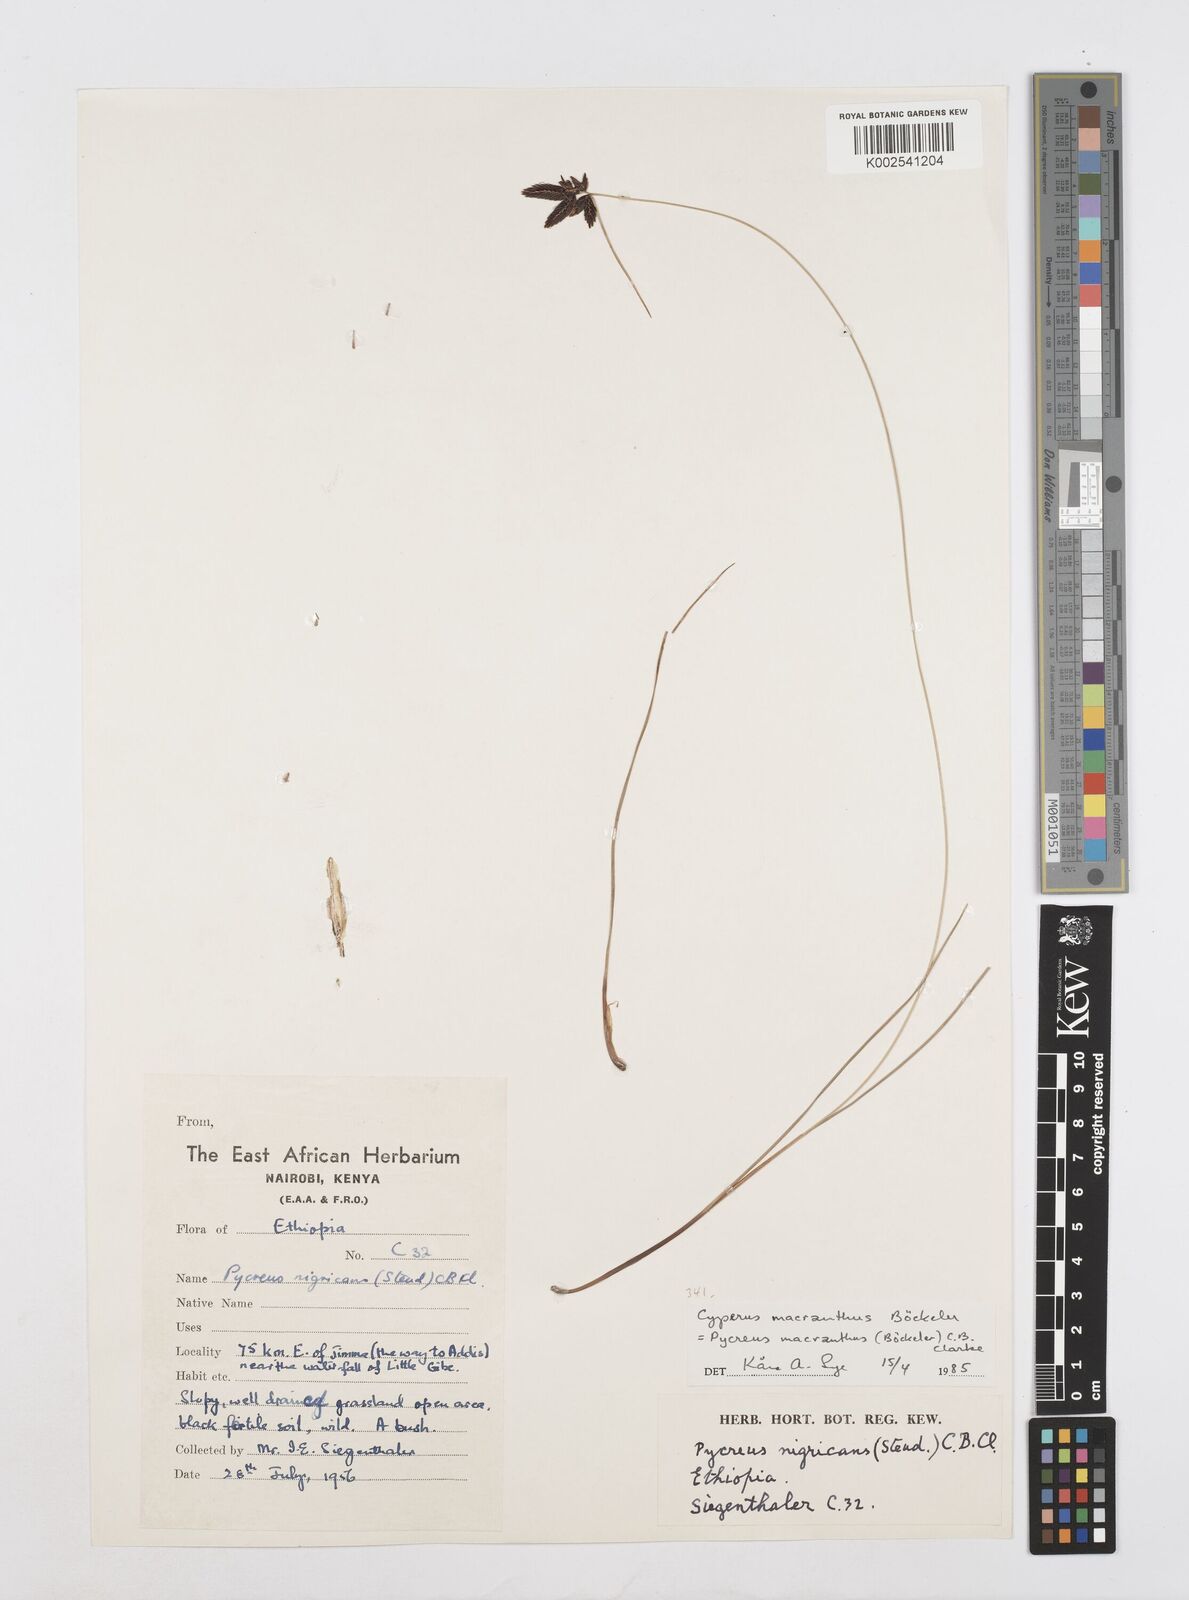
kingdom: Plantae
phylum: Tracheophyta
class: Liliopsida
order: Poales
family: Cyperaceae
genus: Cyperus
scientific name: Cyperus nigricans
